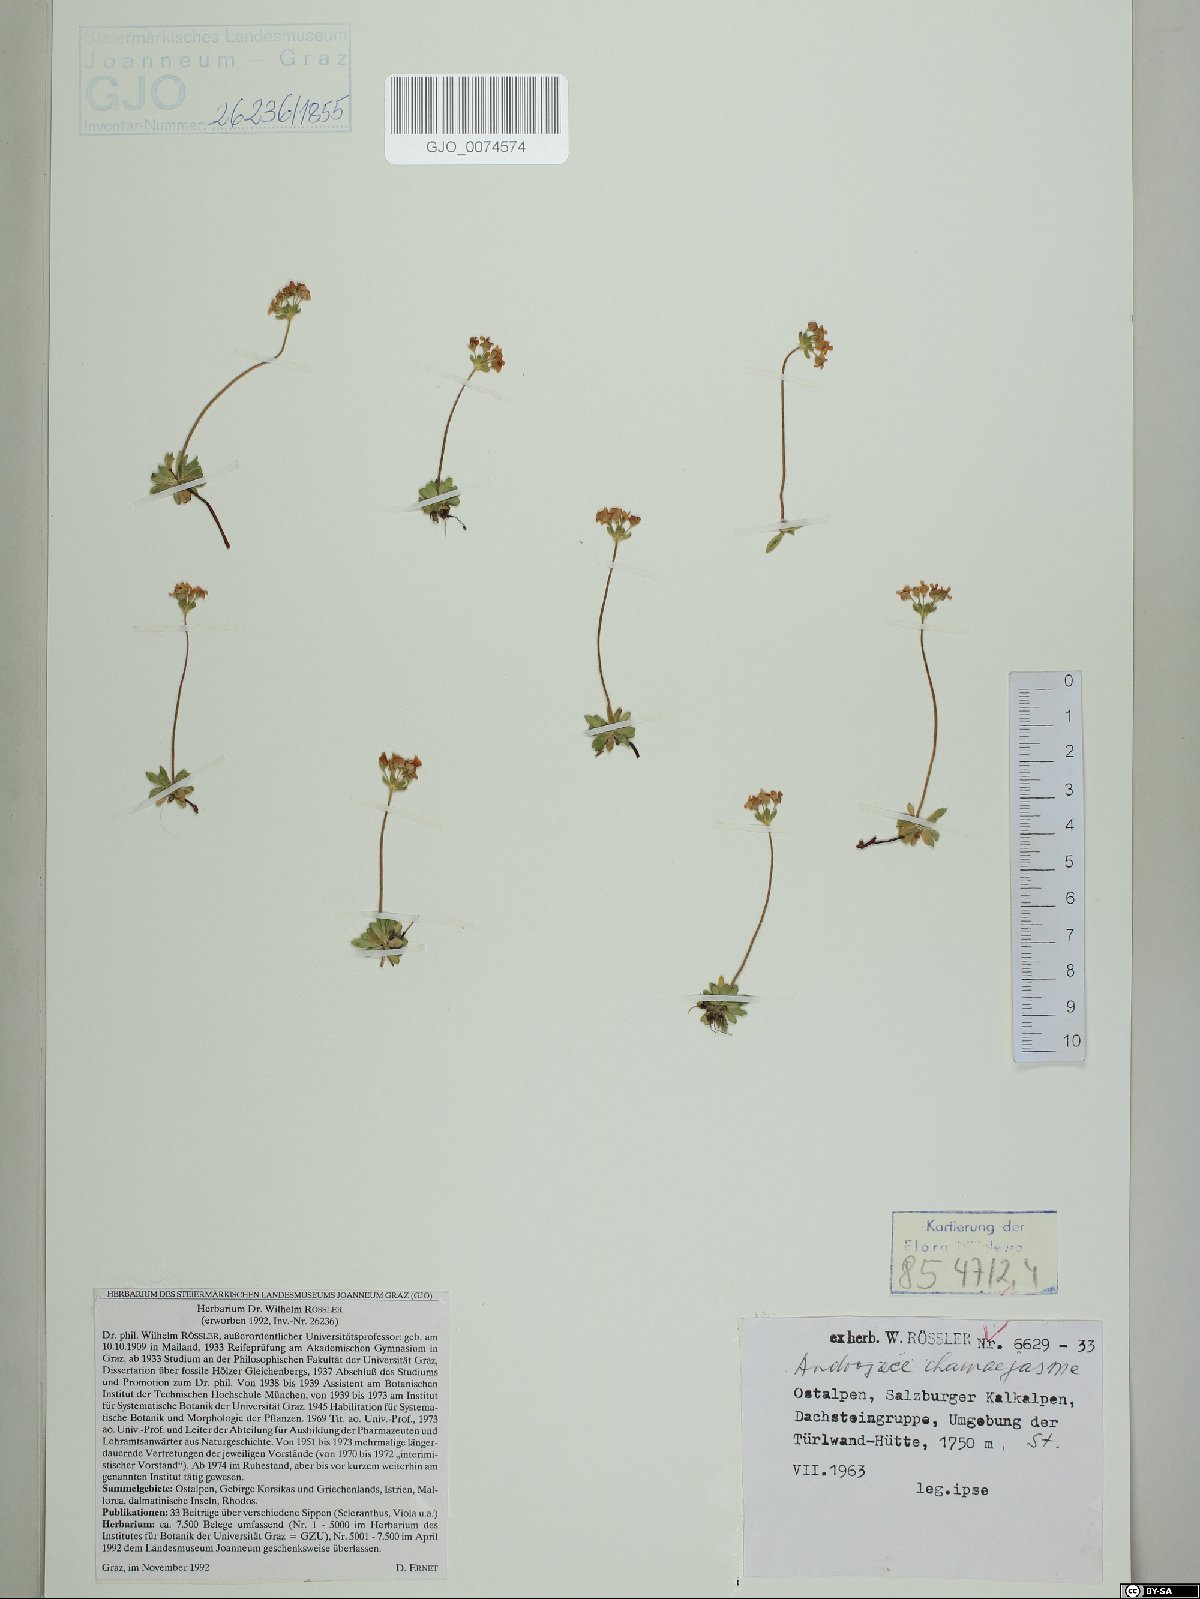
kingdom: Plantae
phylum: Tracheophyta
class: Magnoliopsida
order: Ericales
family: Primulaceae
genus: Androsace
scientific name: Androsace chamaejasme
